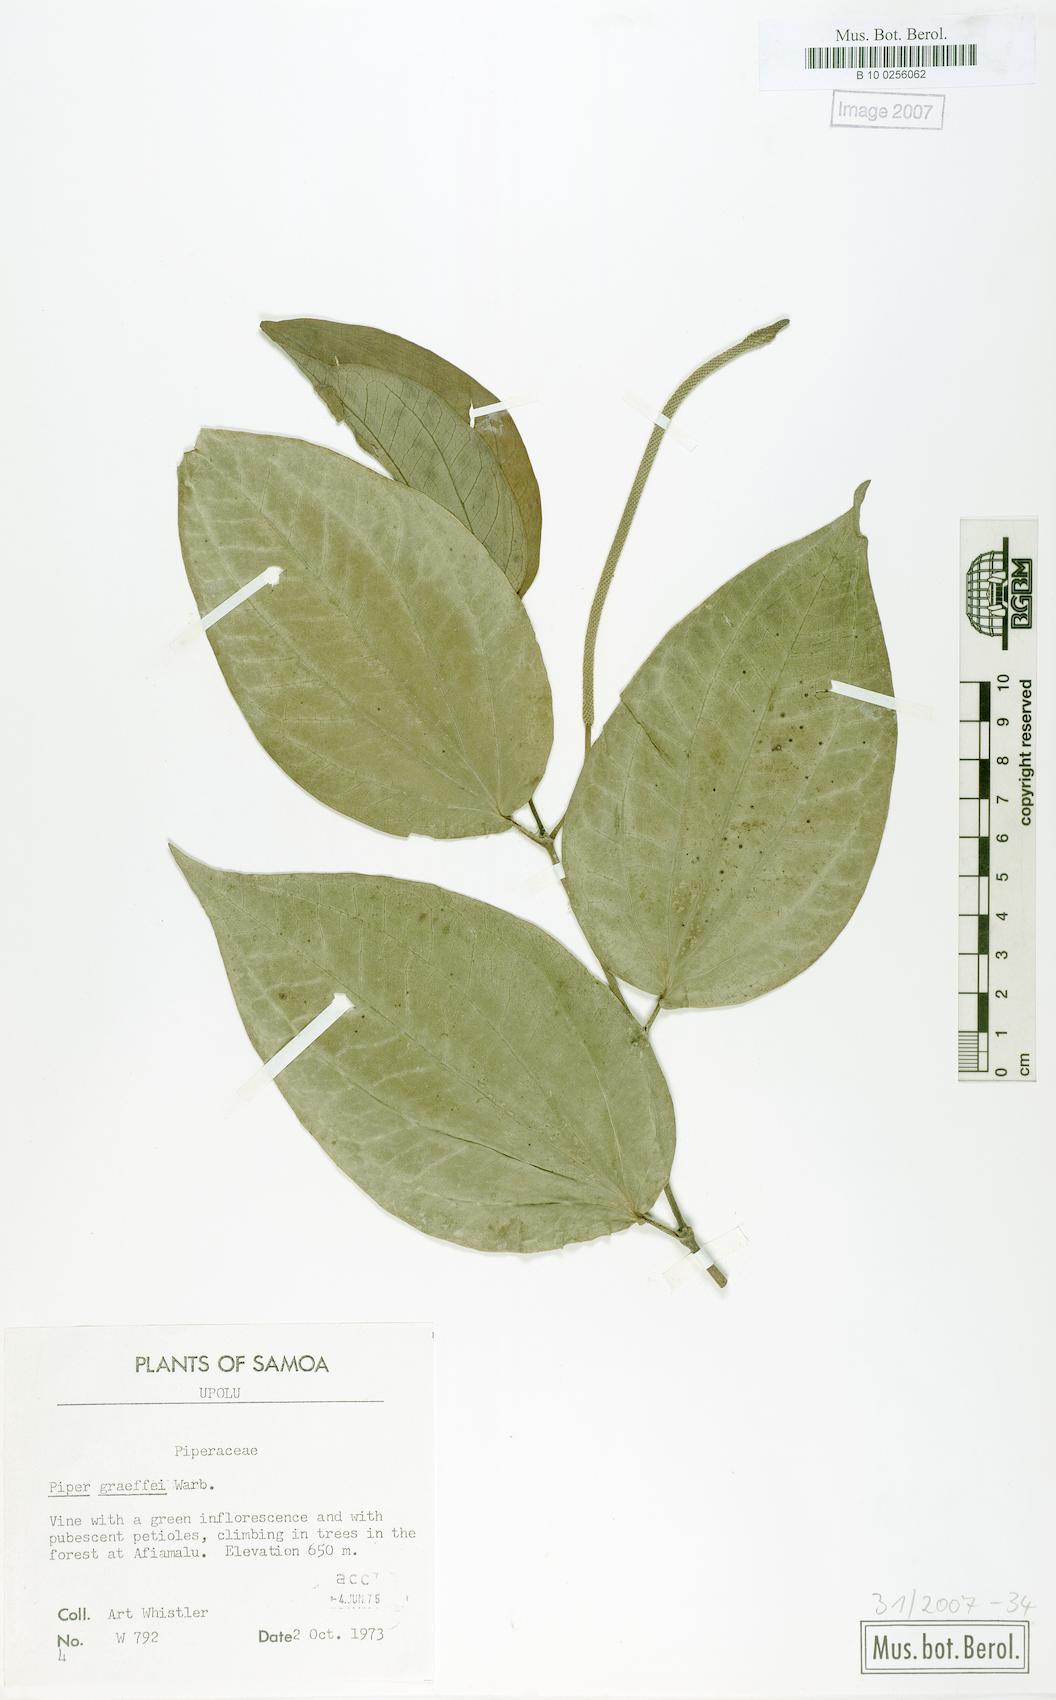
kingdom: Plantae
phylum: Tracheophyta
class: Magnoliopsida
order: Piperales
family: Piperaceae
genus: Piper
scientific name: Piper graeffei
